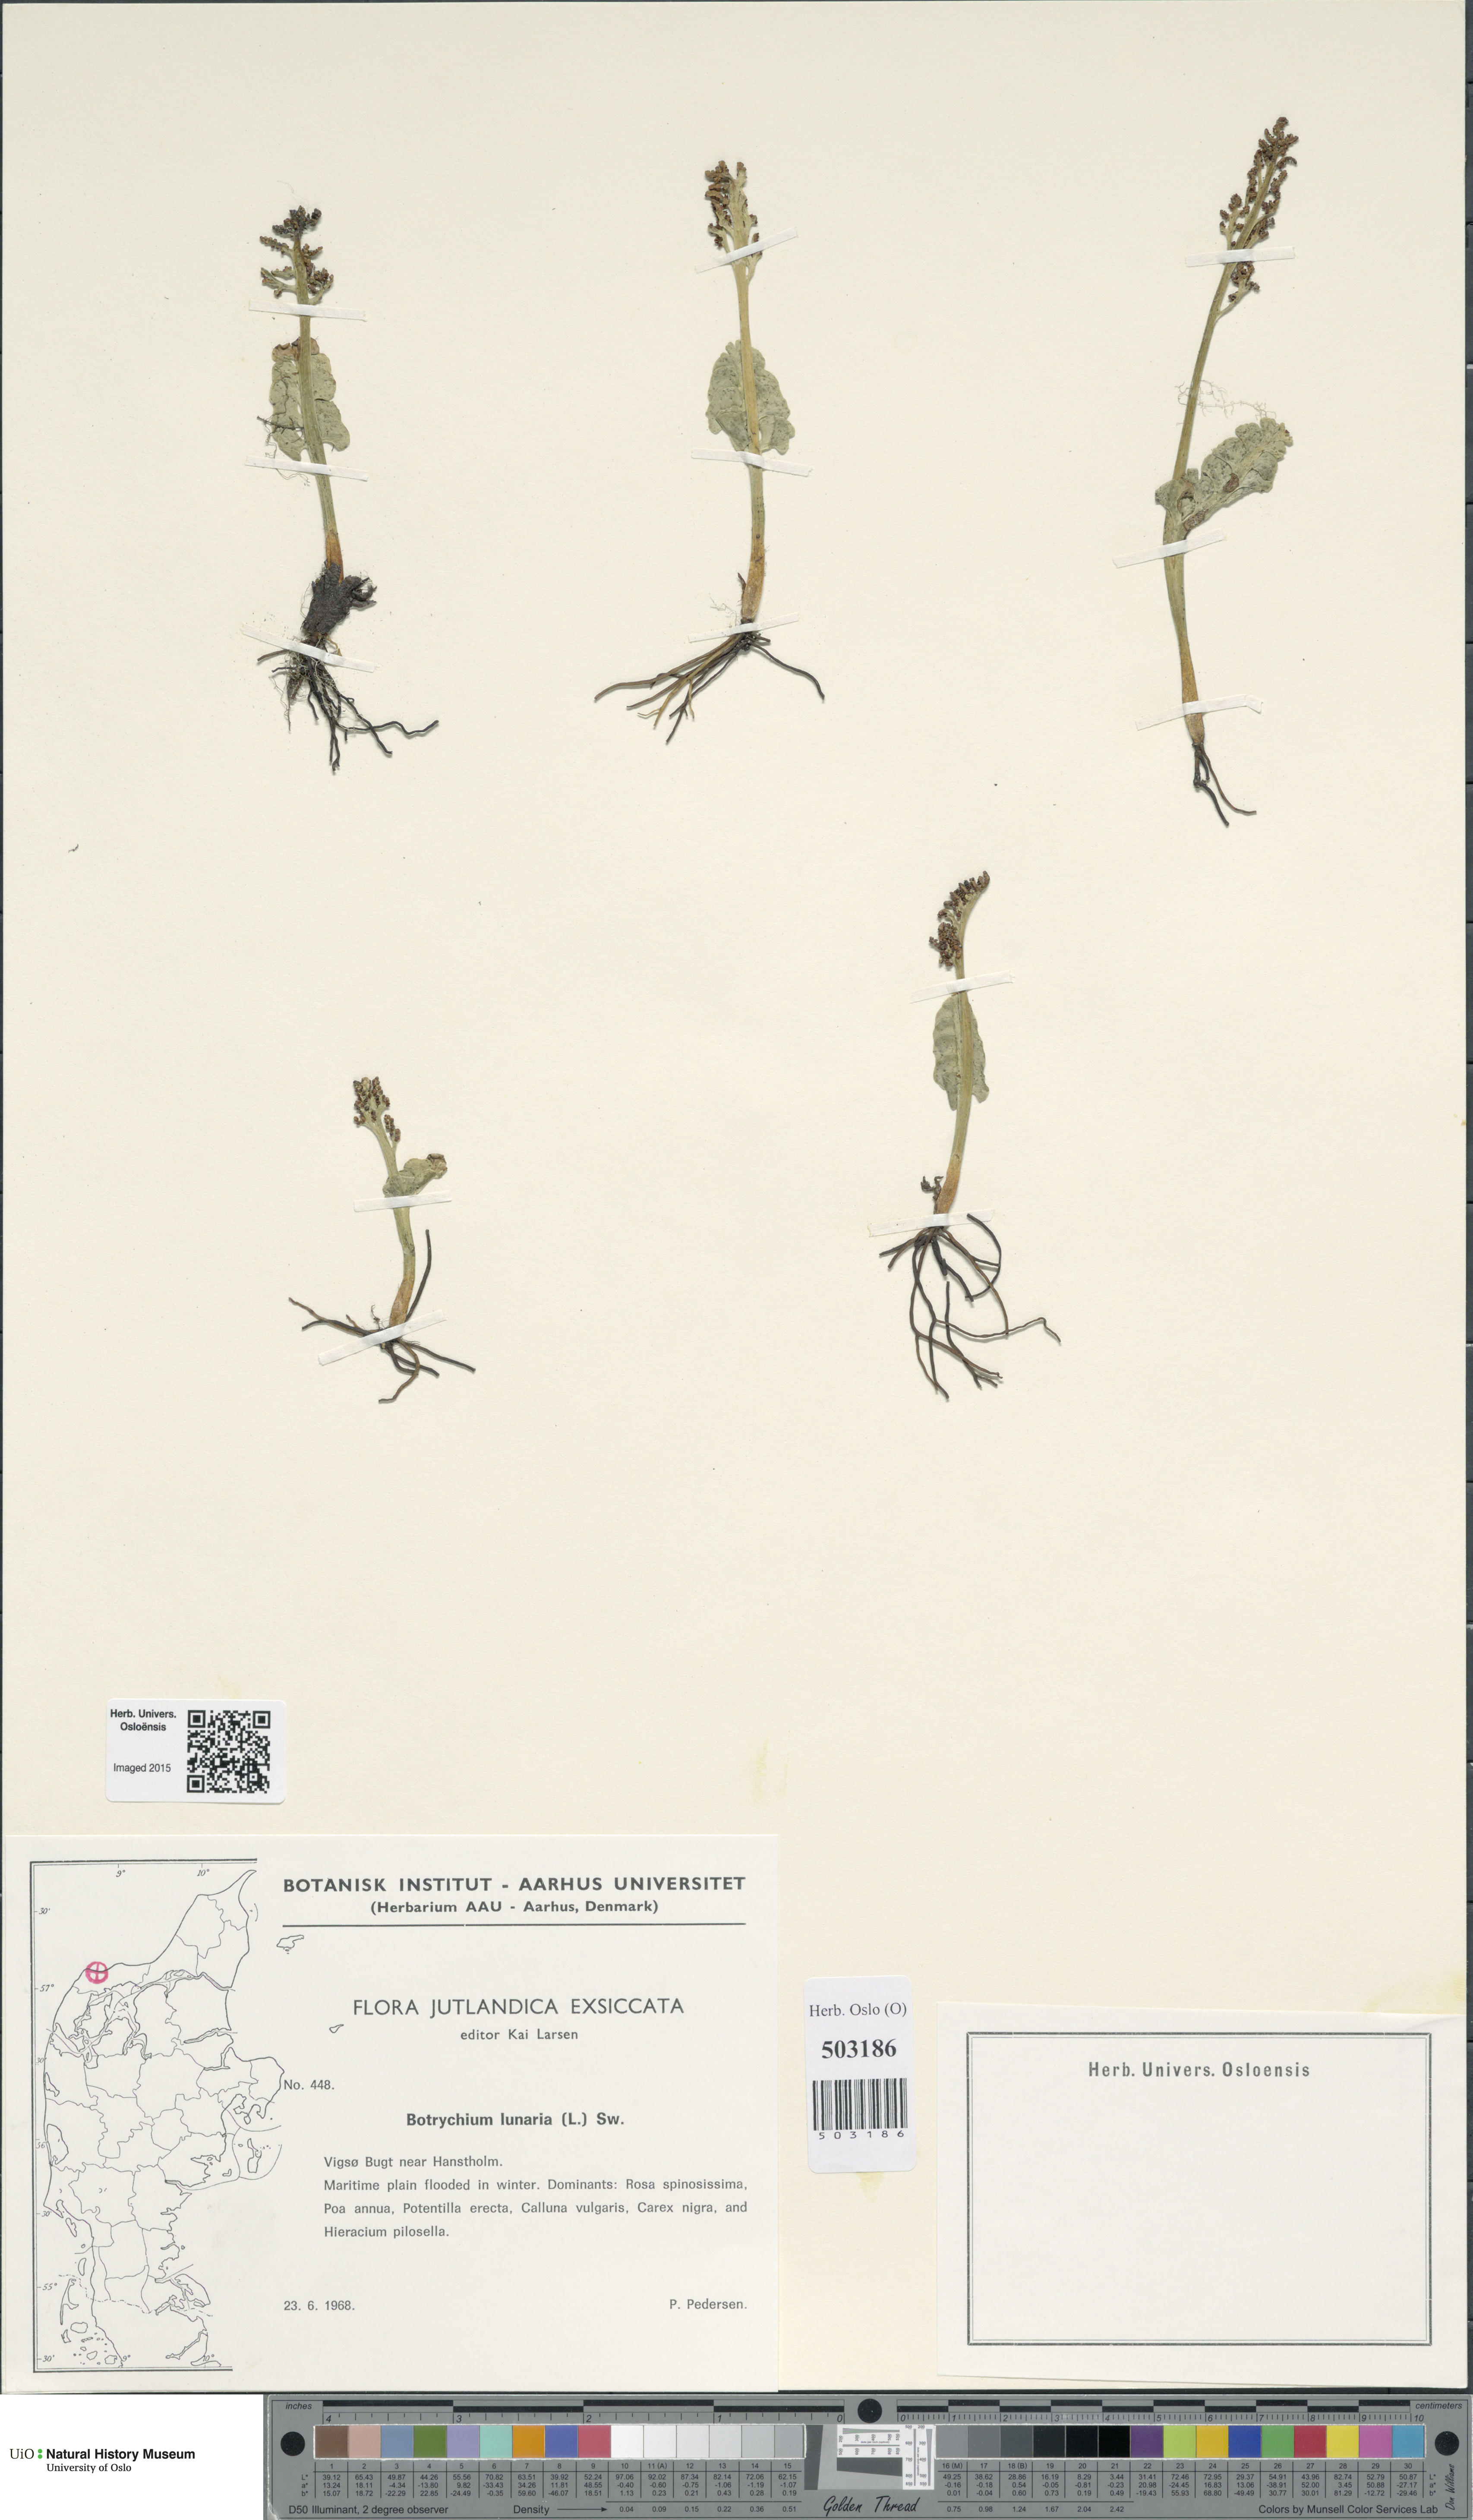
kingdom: Plantae
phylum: Tracheophyta
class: Polypodiopsida
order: Ophioglossales
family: Ophioglossaceae
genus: Botrychium
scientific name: Botrychium lunaria
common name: Moonwort
